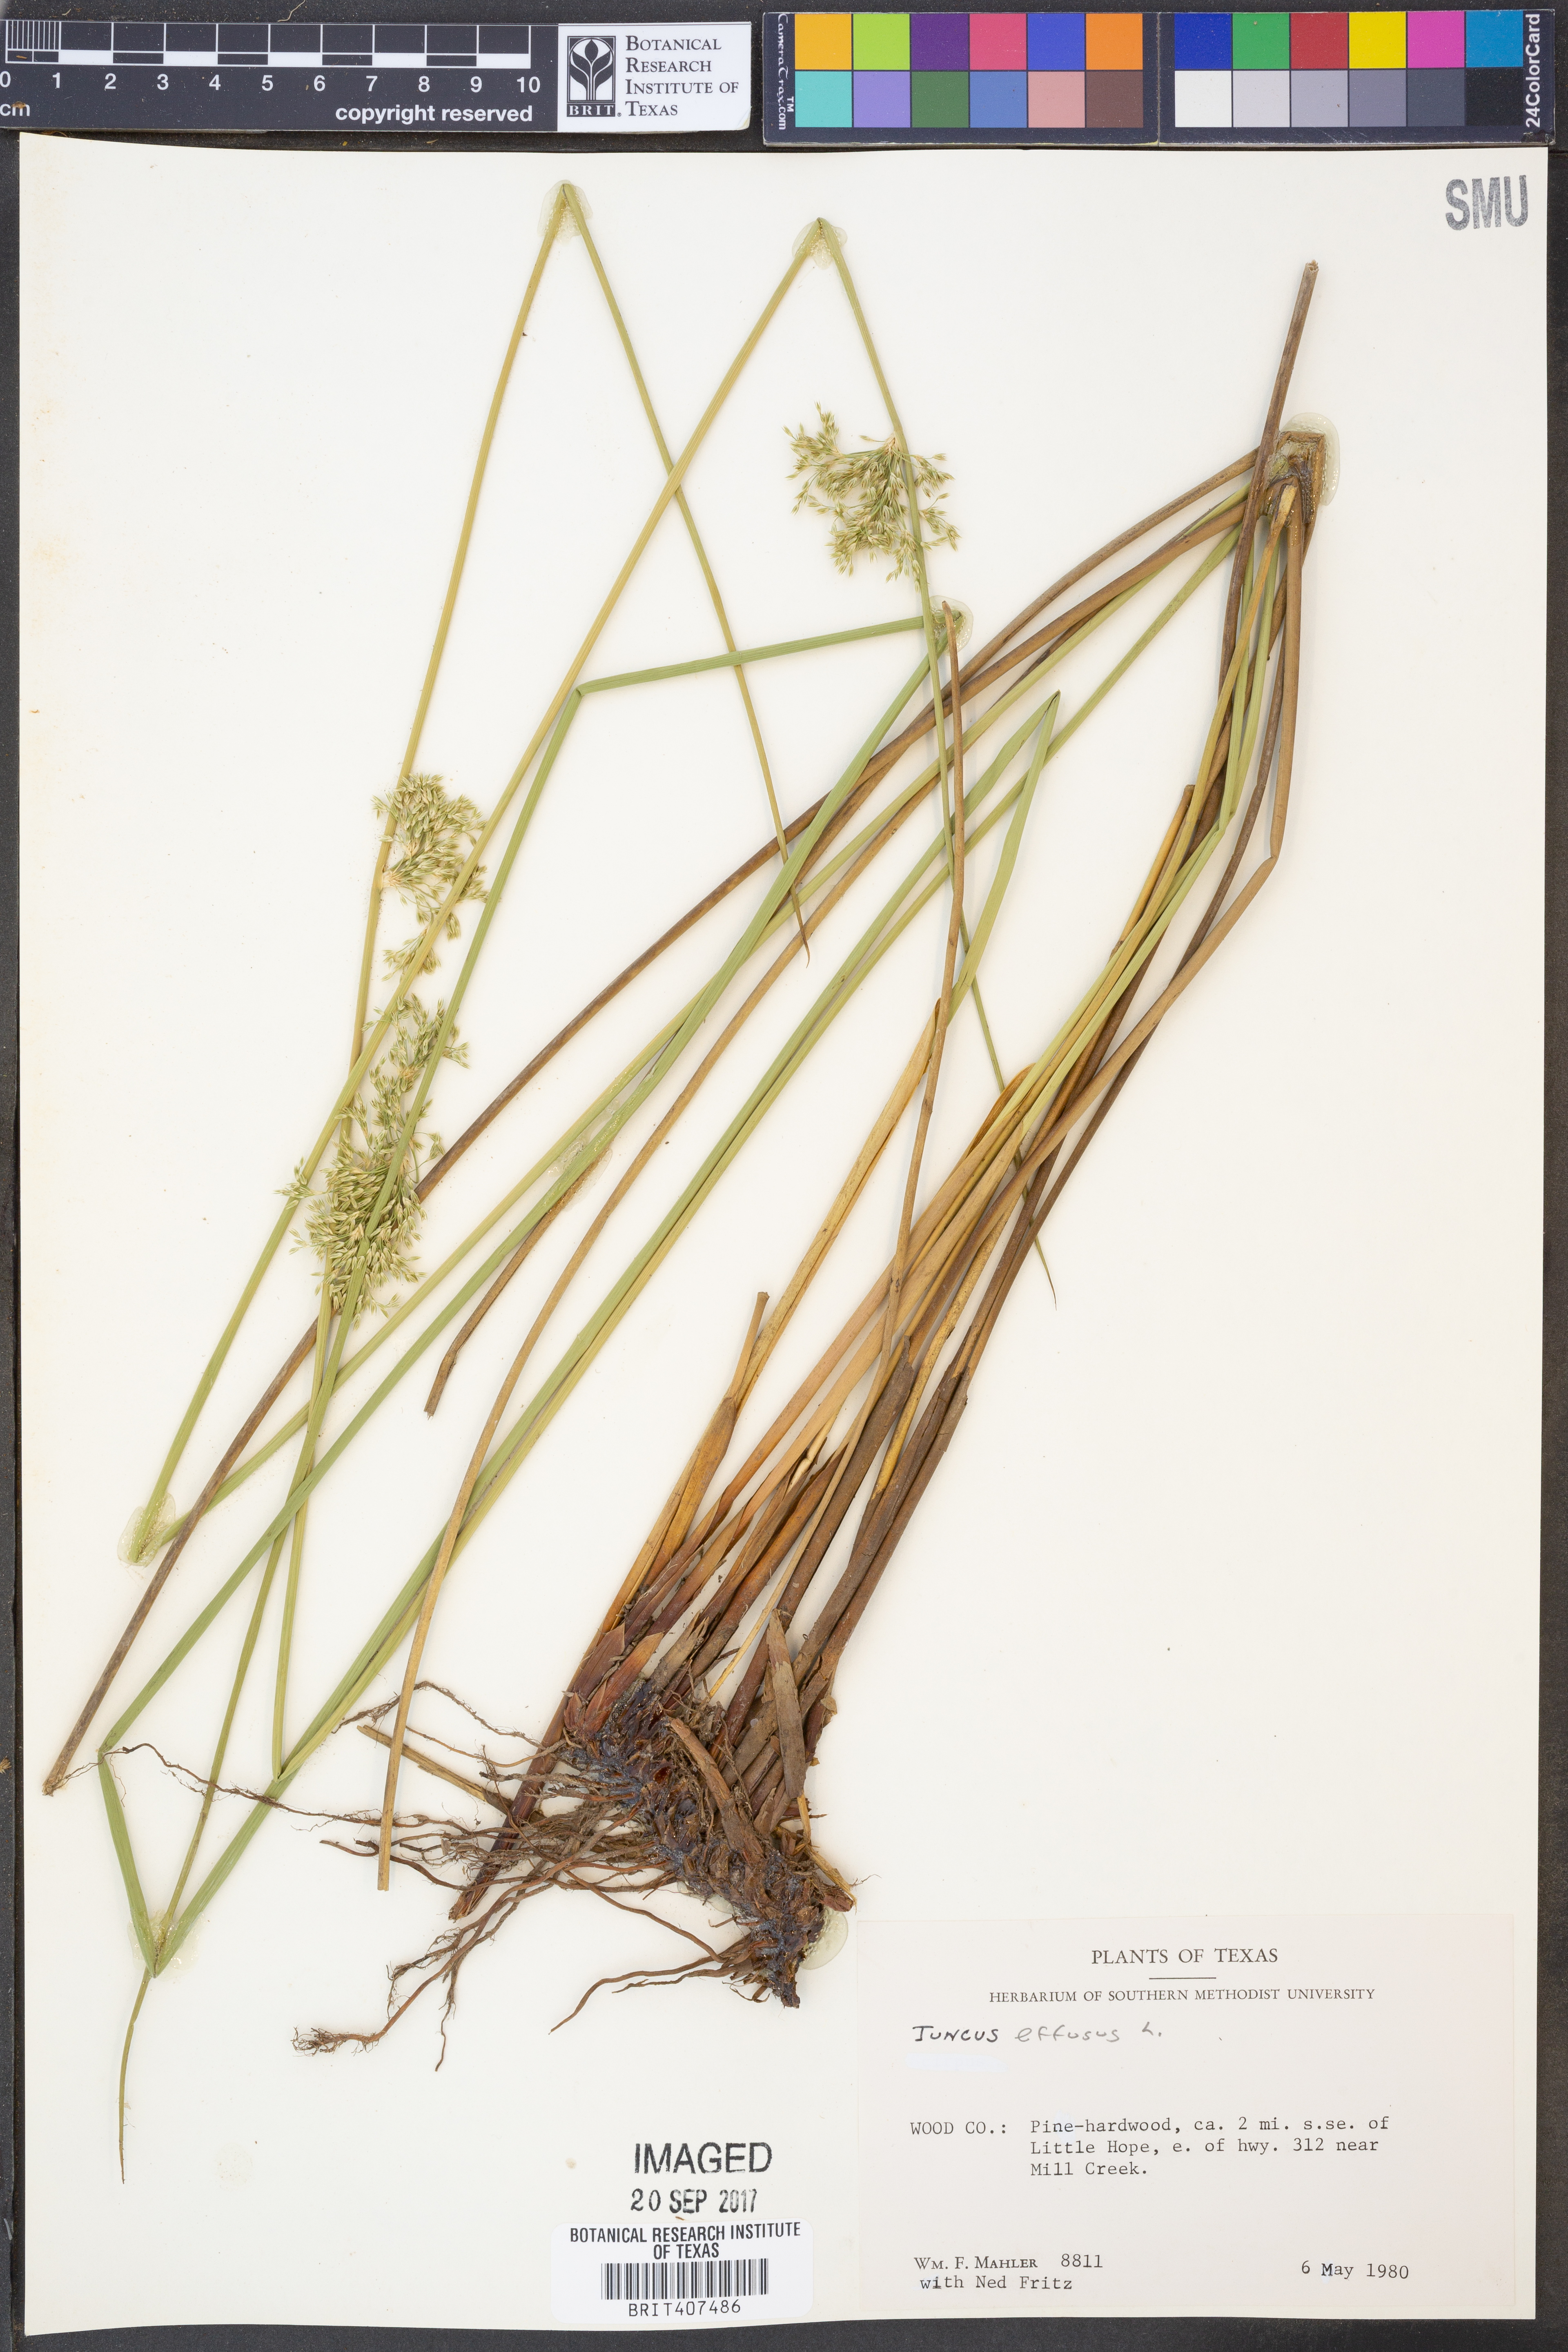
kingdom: Plantae
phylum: Tracheophyta
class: Liliopsida
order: Poales
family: Juncaceae
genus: Juncus
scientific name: Juncus effusus
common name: Soft rush
